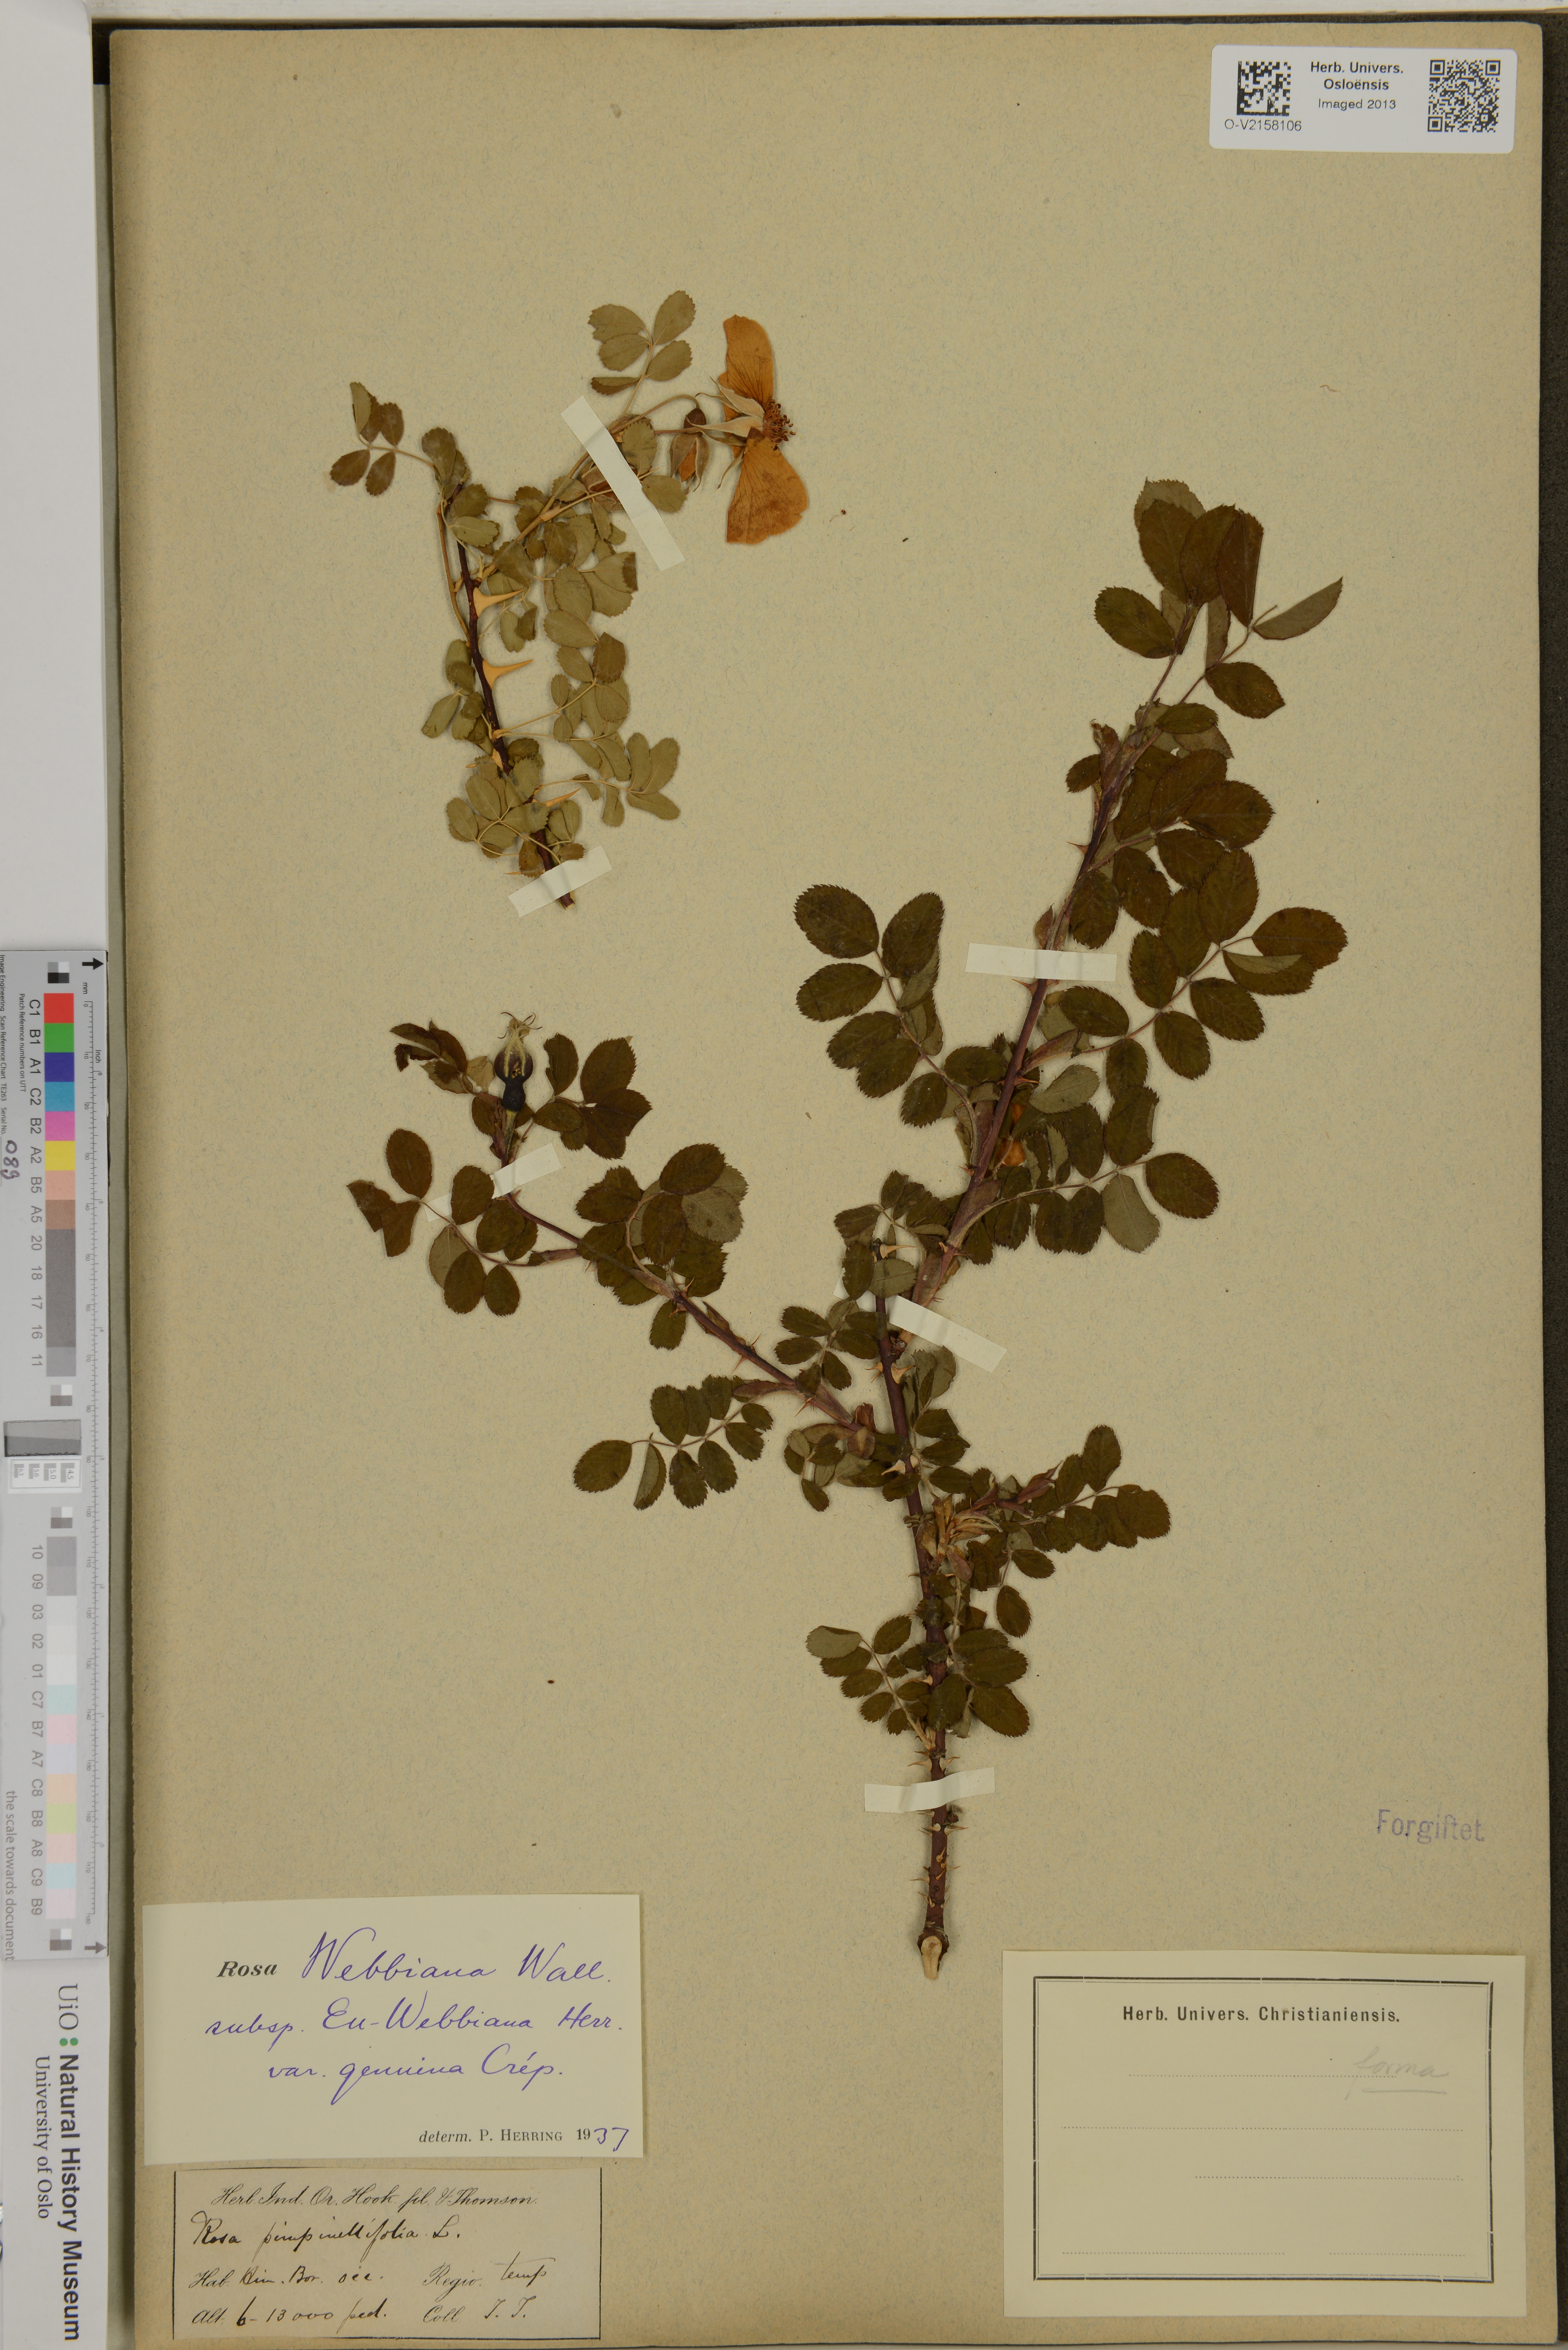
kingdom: Plantae
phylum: Tracheophyta
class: Magnoliopsida
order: Rosales
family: Rosaceae
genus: Rosa
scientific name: Rosa webbiana
